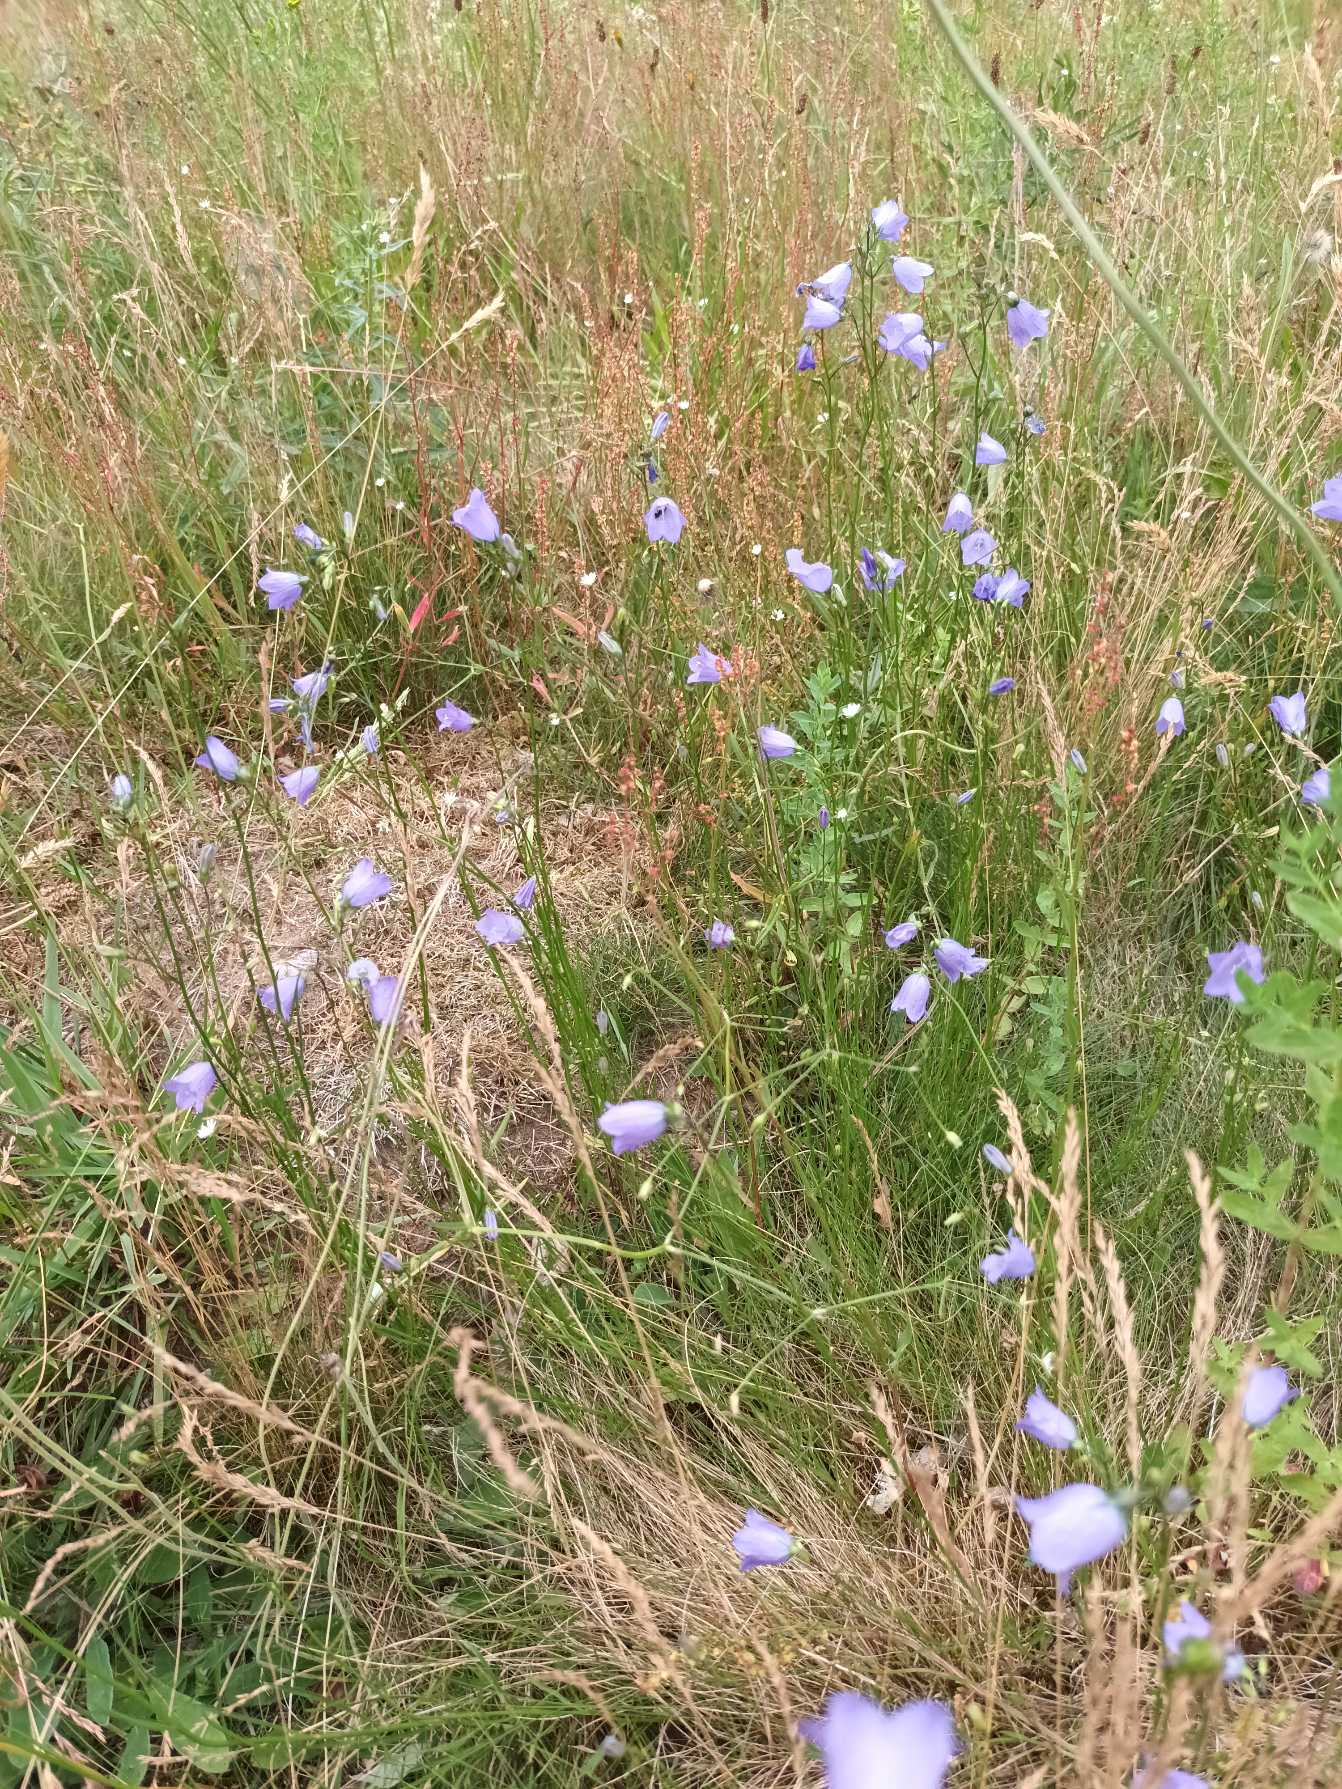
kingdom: Plantae
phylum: Tracheophyta
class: Magnoliopsida
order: Asterales
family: Campanulaceae
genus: Campanula
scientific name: Campanula rotundifolia
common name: Liden klokke
